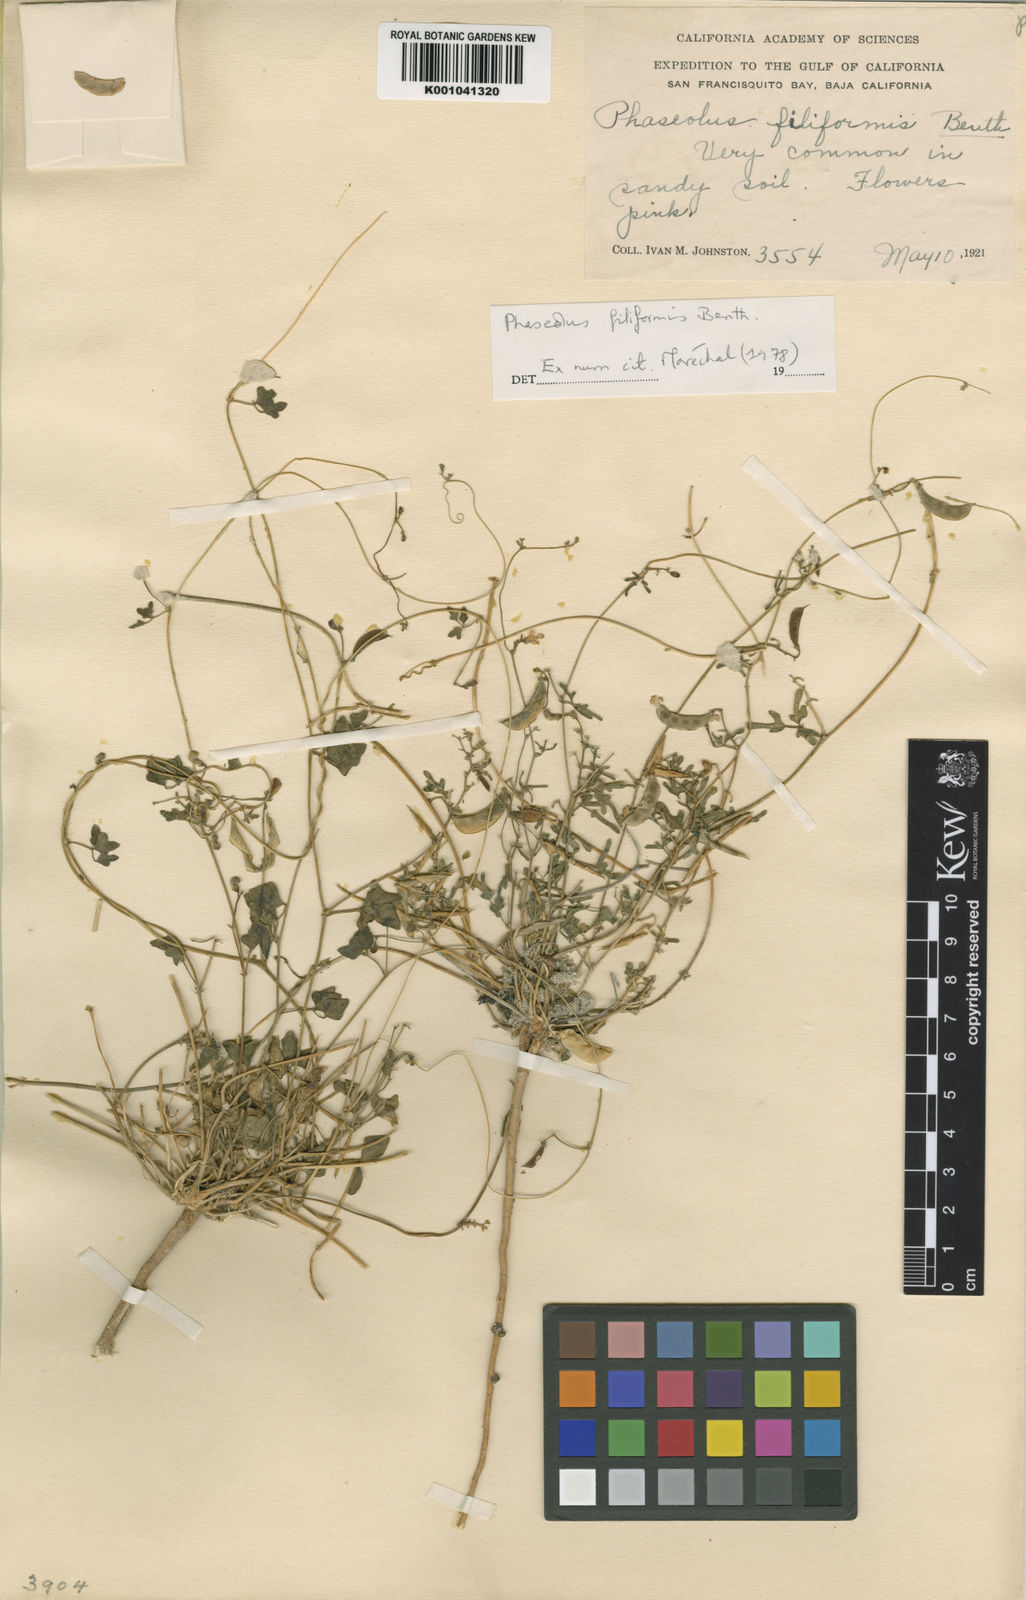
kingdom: Plantae
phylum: Tracheophyta
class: Magnoliopsida
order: Fabales
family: Fabaceae
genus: Phaseolus
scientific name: Phaseolus filiformis
